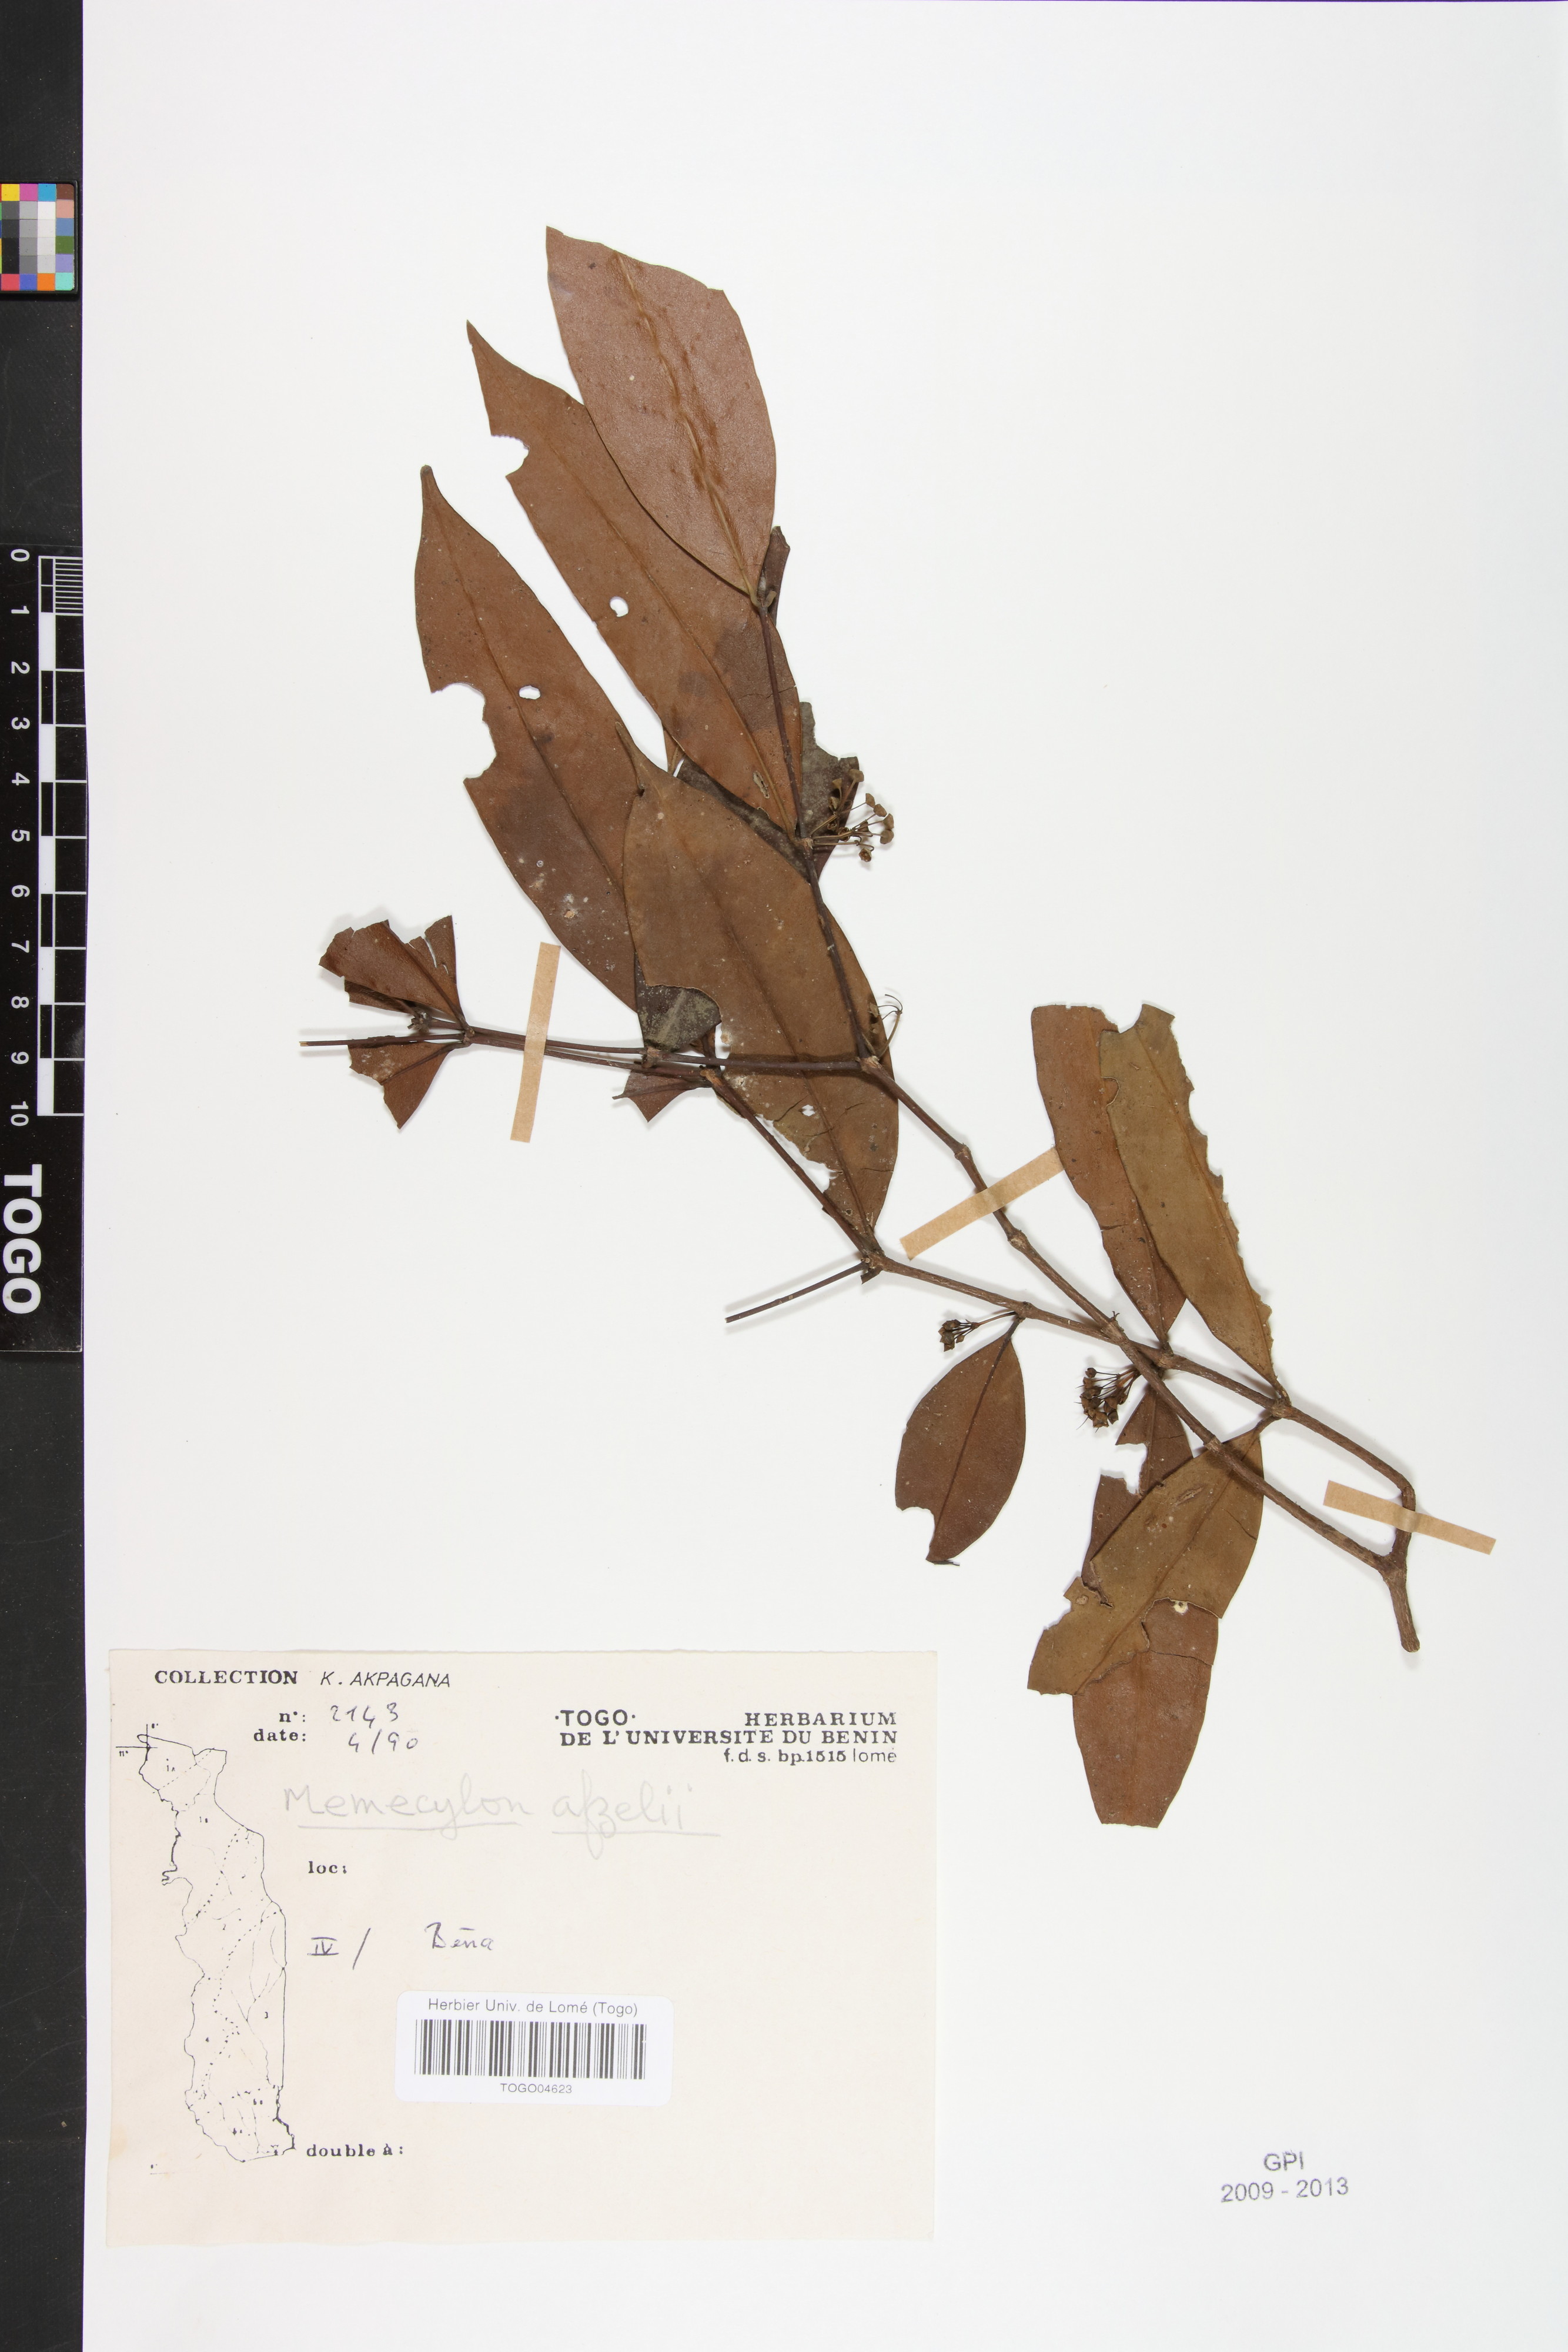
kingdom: Plantae
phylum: Tracheophyta
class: Magnoliopsida
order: Myrtales
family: Melastomataceae
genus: Memecylon
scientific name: Memecylon afzelii
